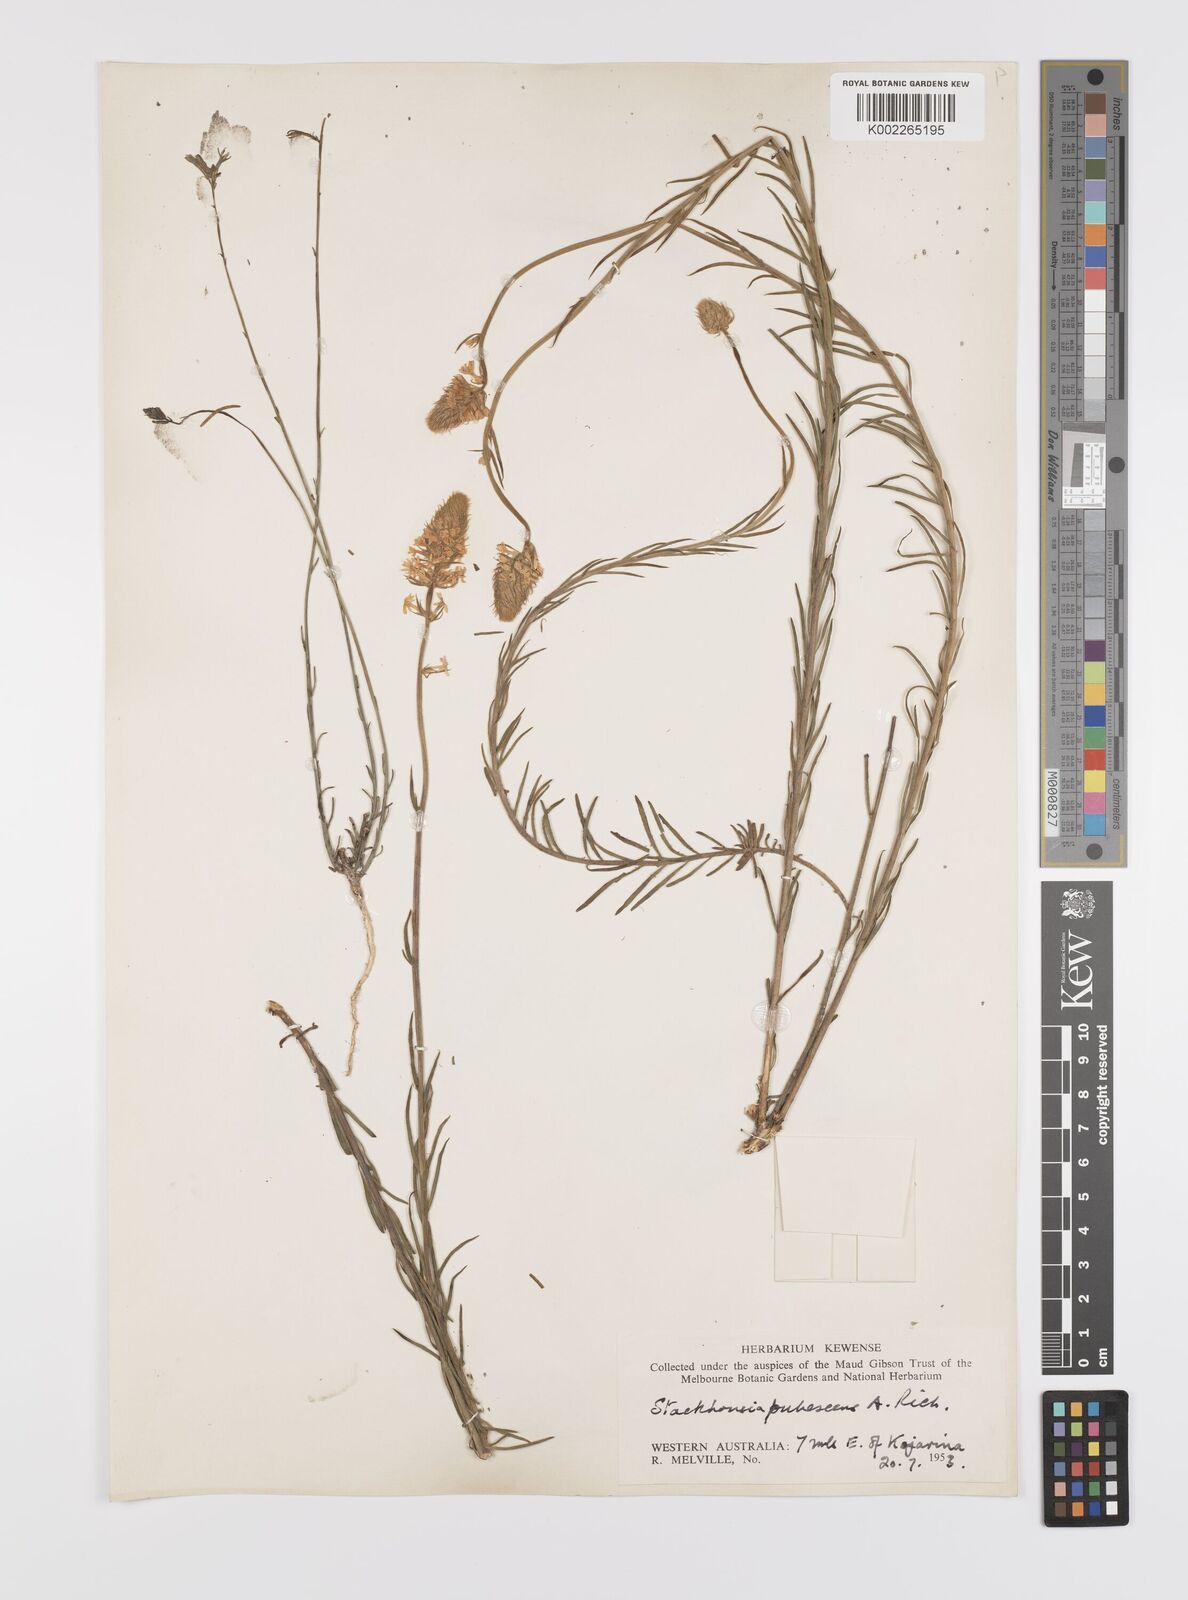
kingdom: Plantae
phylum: Tracheophyta
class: Magnoliopsida
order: Celastrales
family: Celastraceae
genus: Stackhousia
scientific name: Stackhousia monogyna
